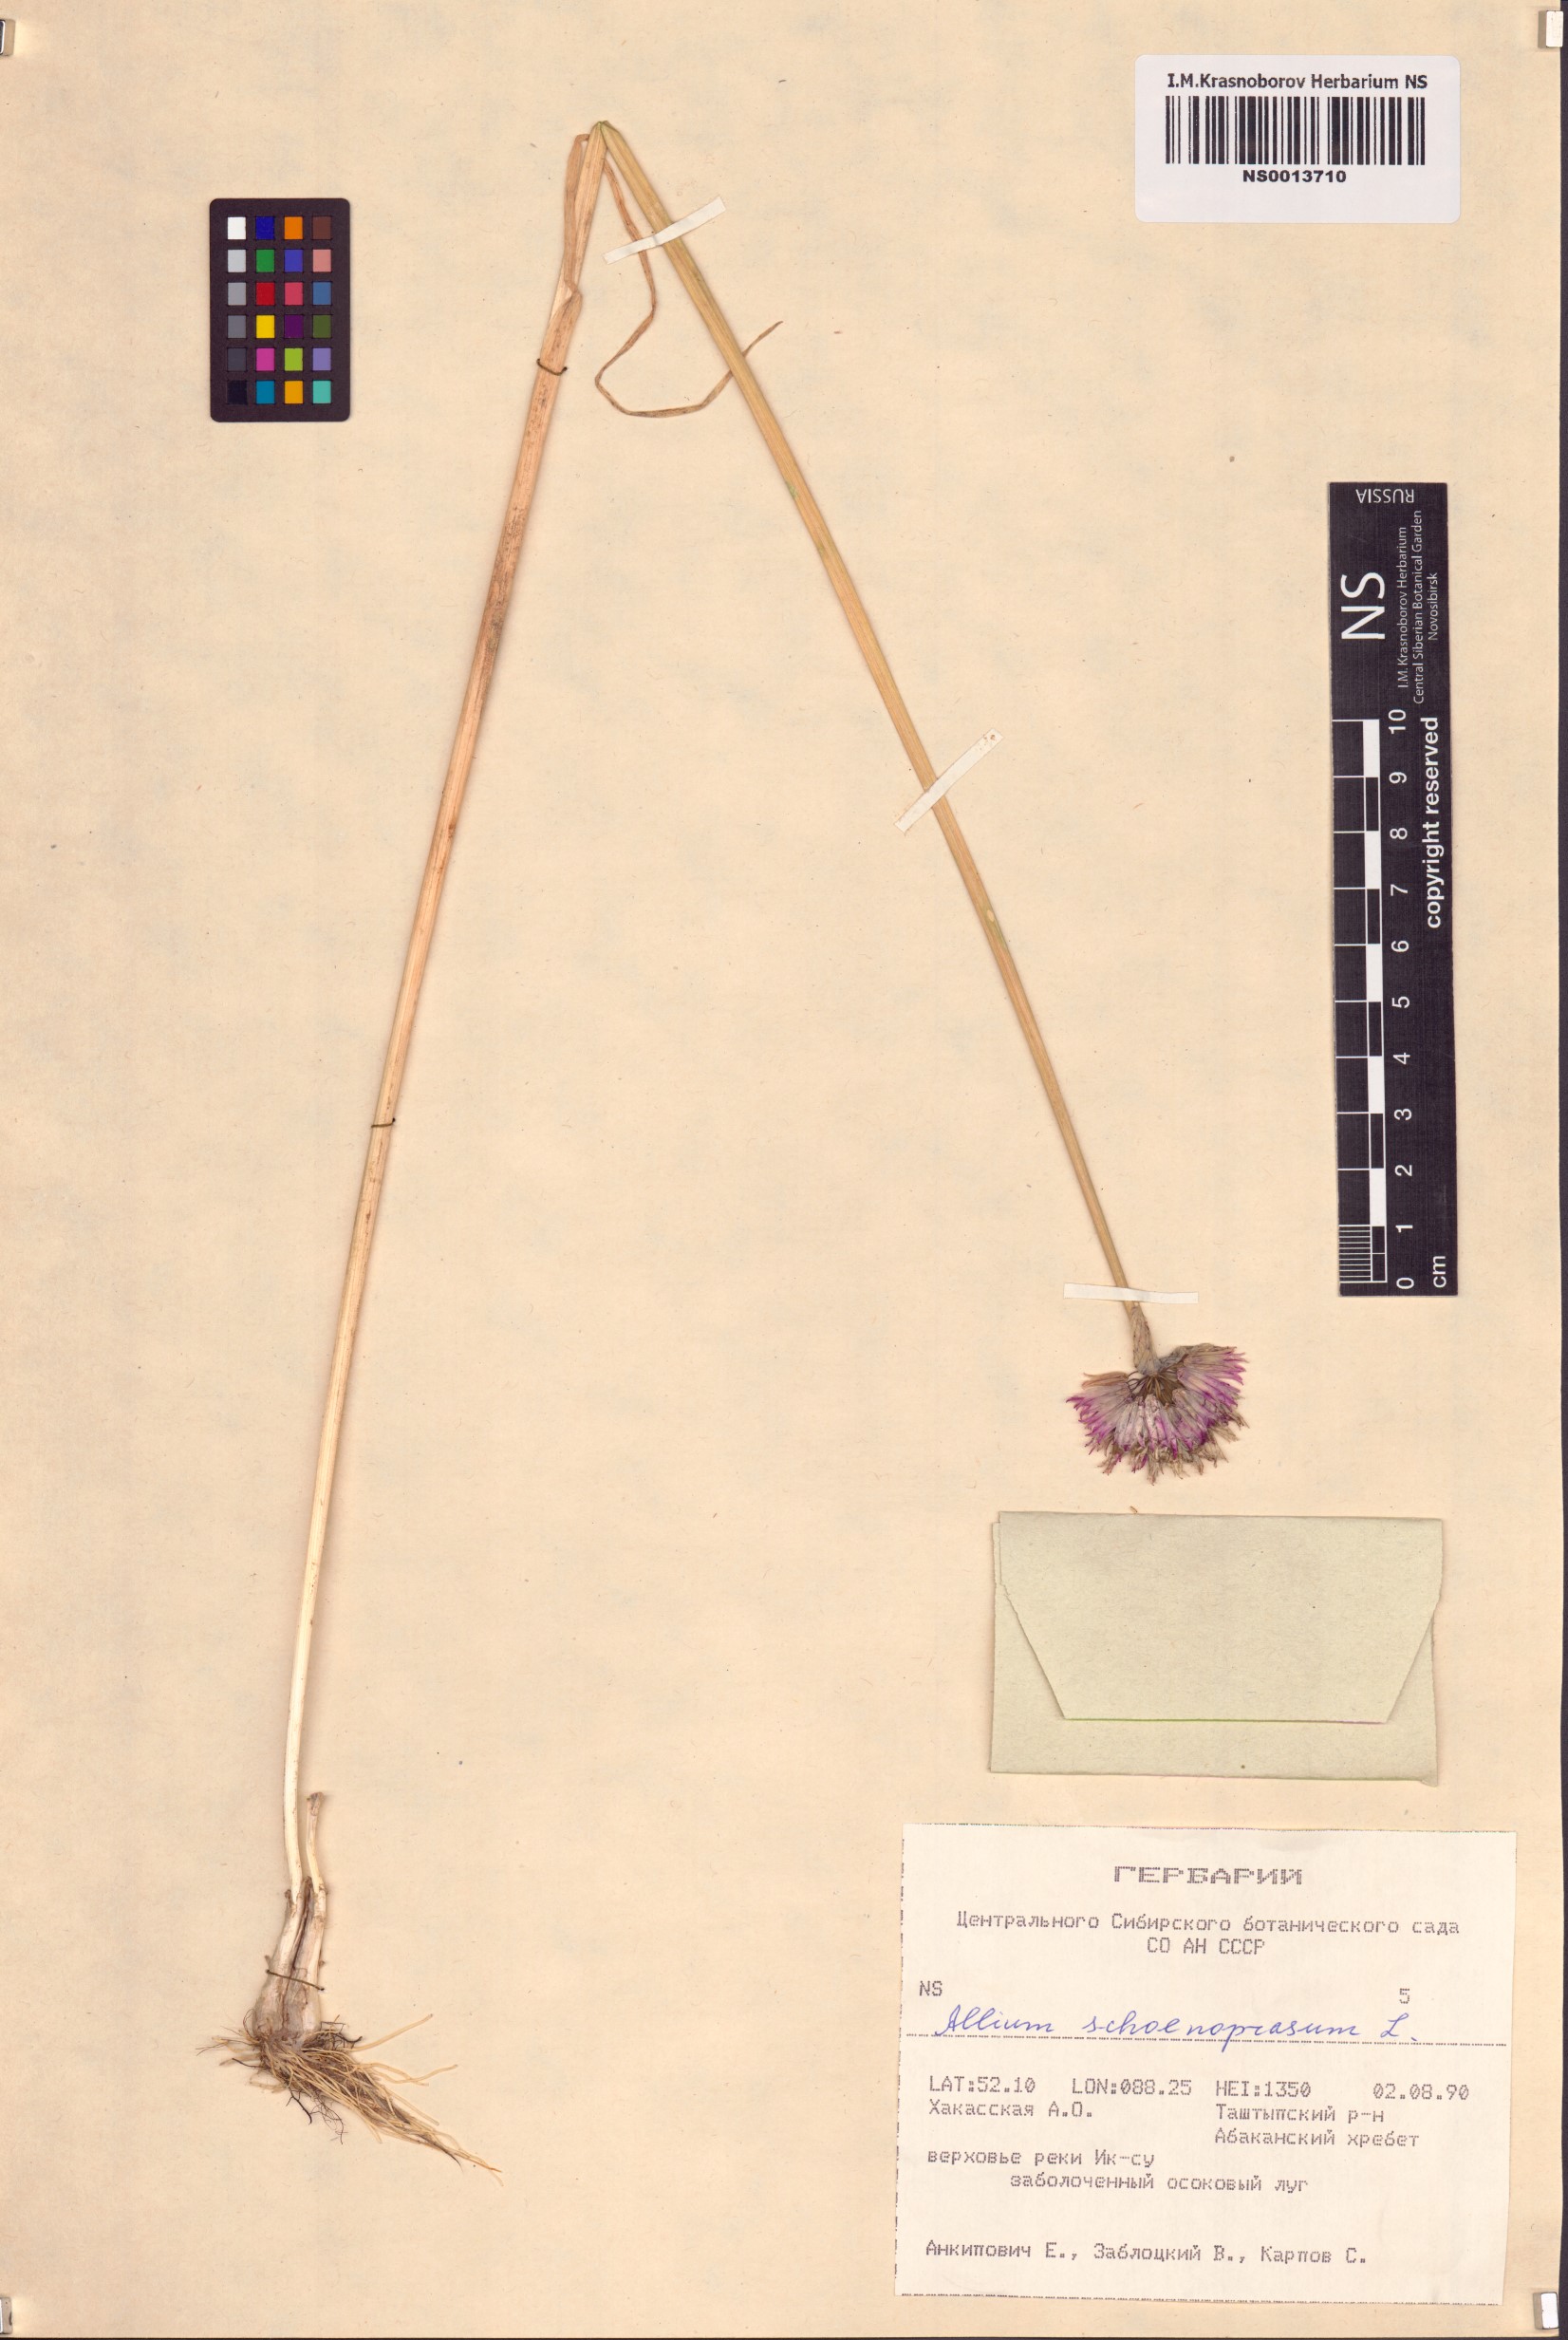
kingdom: Plantae
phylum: Tracheophyta
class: Liliopsida
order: Asparagales
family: Amaryllidaceae
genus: Allium
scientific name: Allium schoenoprasum
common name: Chives
